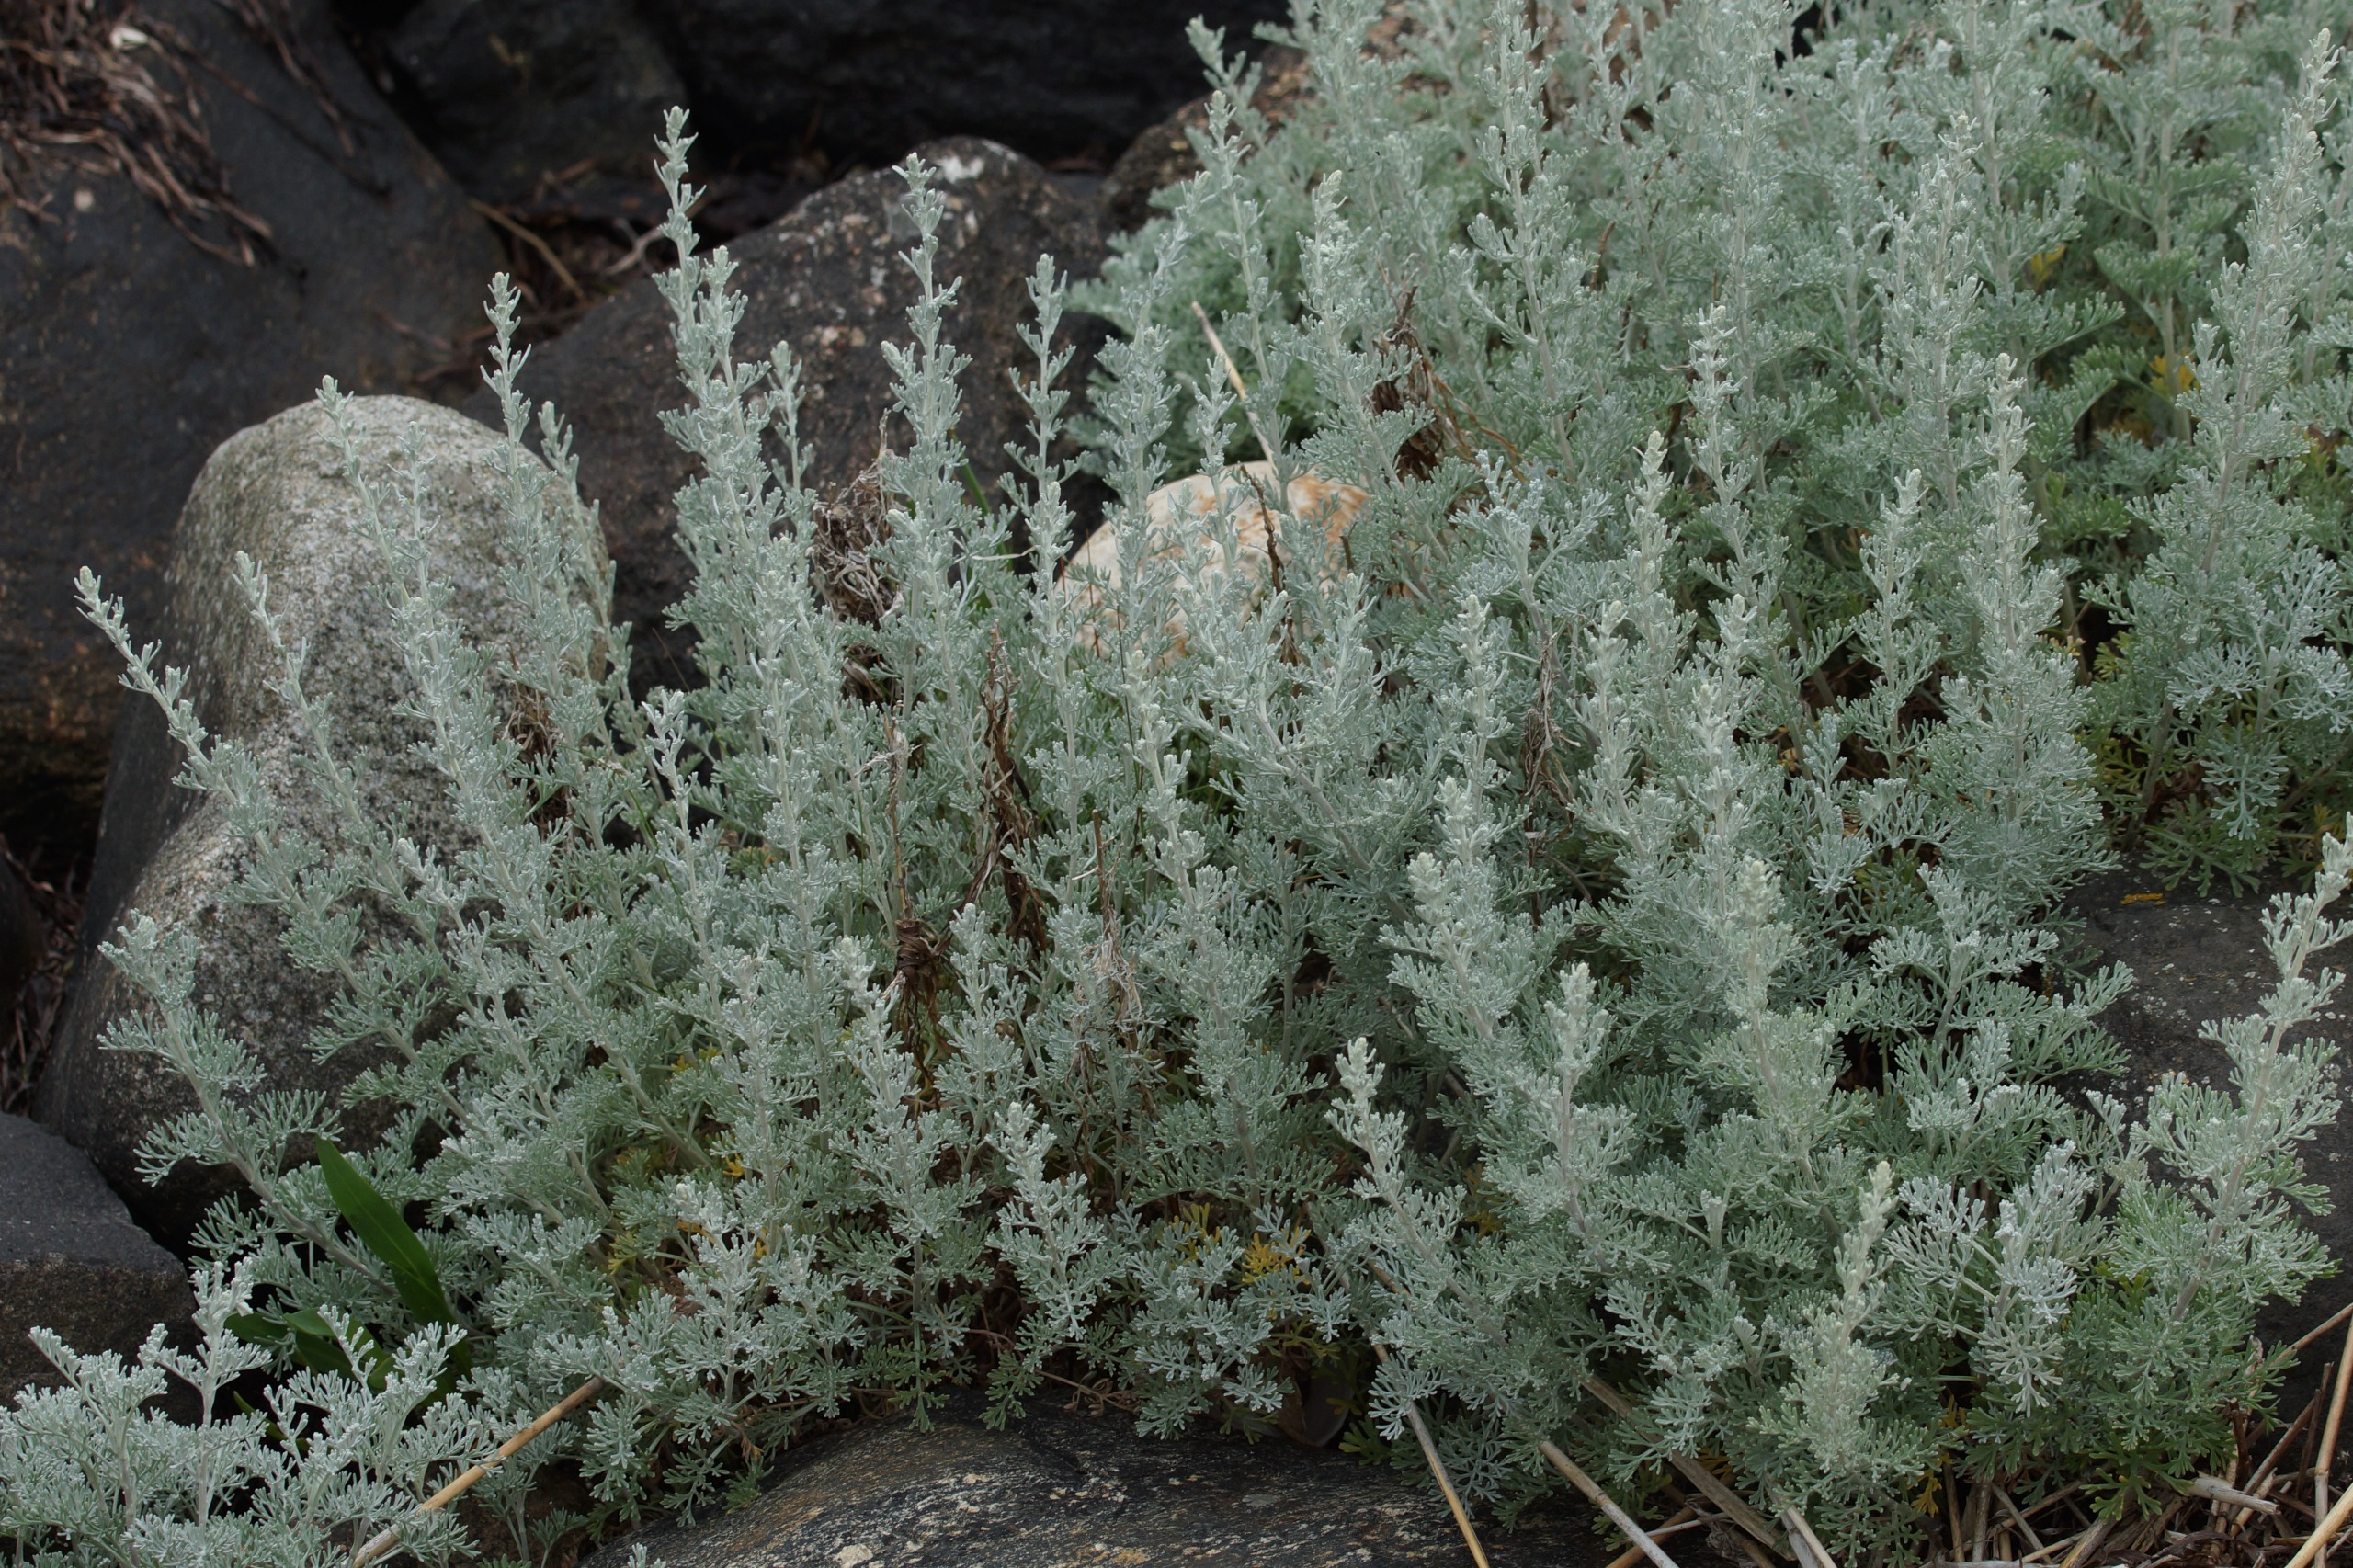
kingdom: Plantae
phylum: Tracheophyta
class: Magnoliopsida
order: Asterales
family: Asteraceae
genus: Artemisia
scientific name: Artemisia maritima
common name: Strandmalurt
